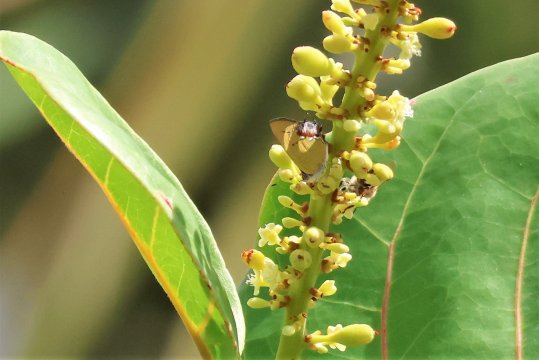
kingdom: Animalia
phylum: Arthropoda
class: Insecta
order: Lepidoptera
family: Lycaenidae
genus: Thecla
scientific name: Thecla maesites
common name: Amethyst Hairstreak
